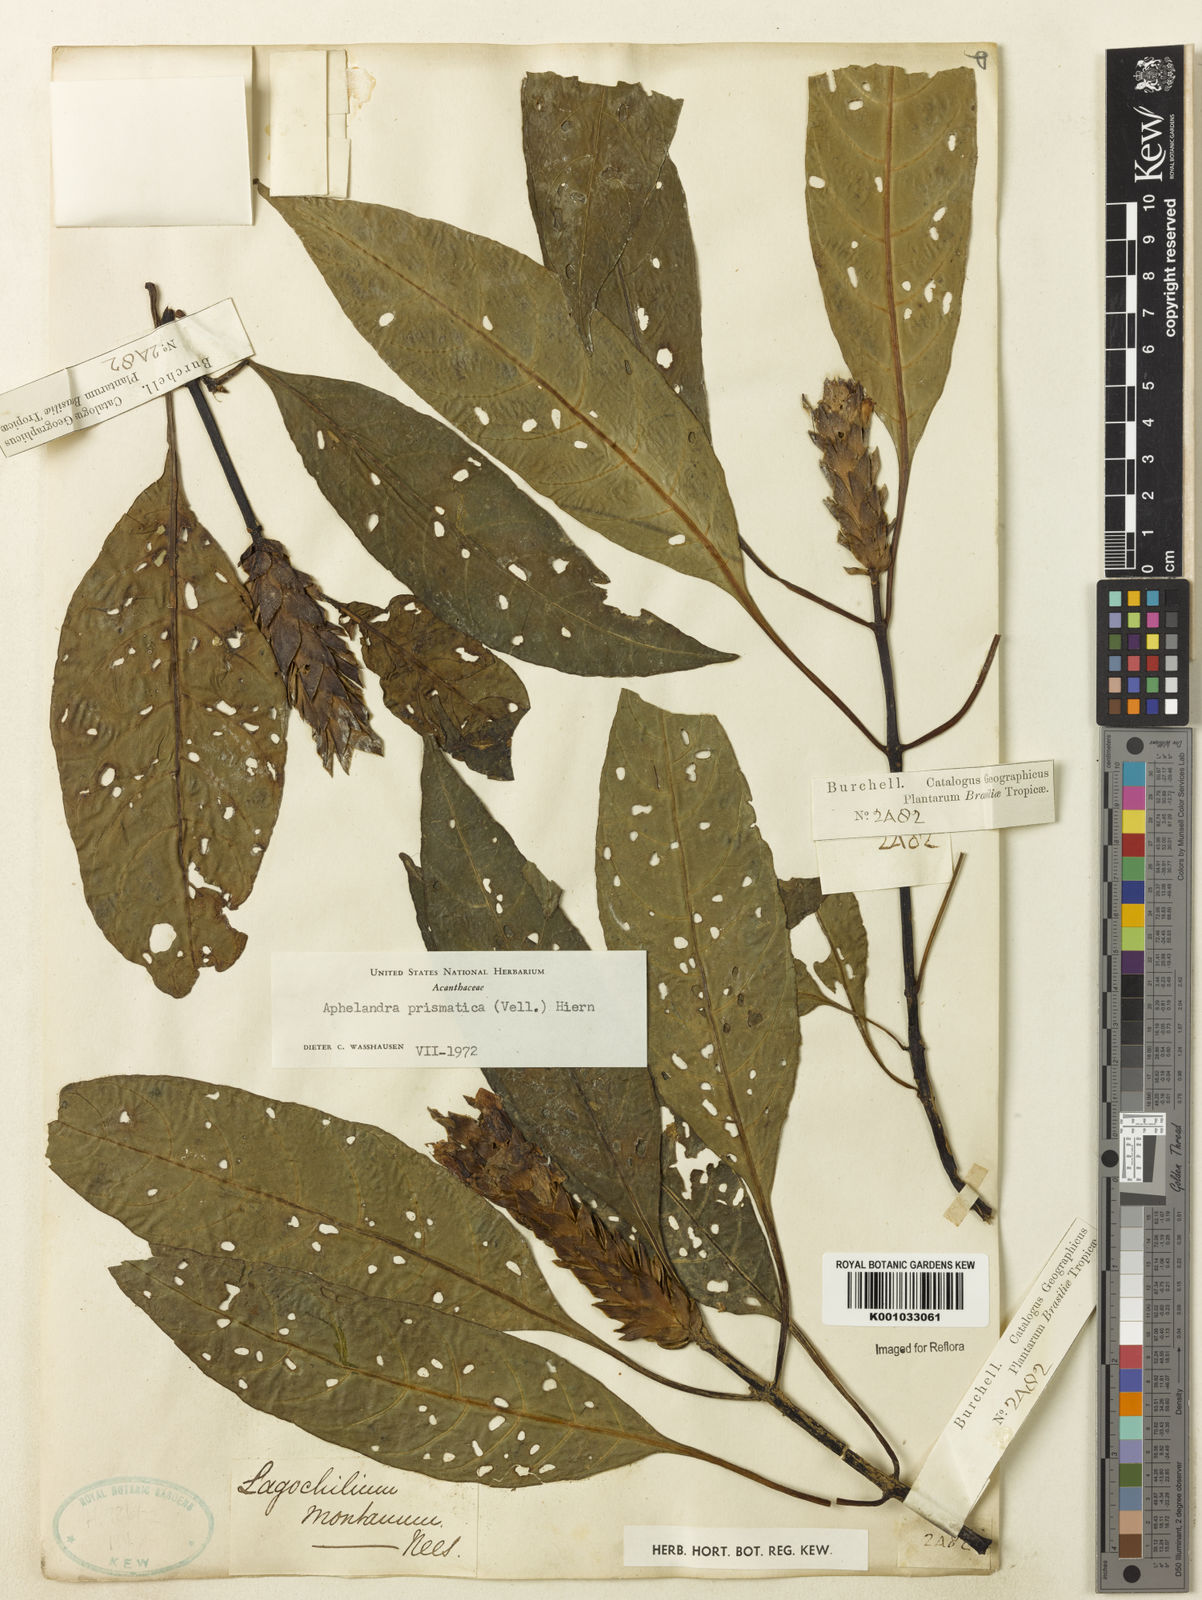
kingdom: Plantae
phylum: Tracheophyta
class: Magnoliopsida
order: Lamiales
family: Acanthaceae
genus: Aphelandra
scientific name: Aphelandra prismatica
